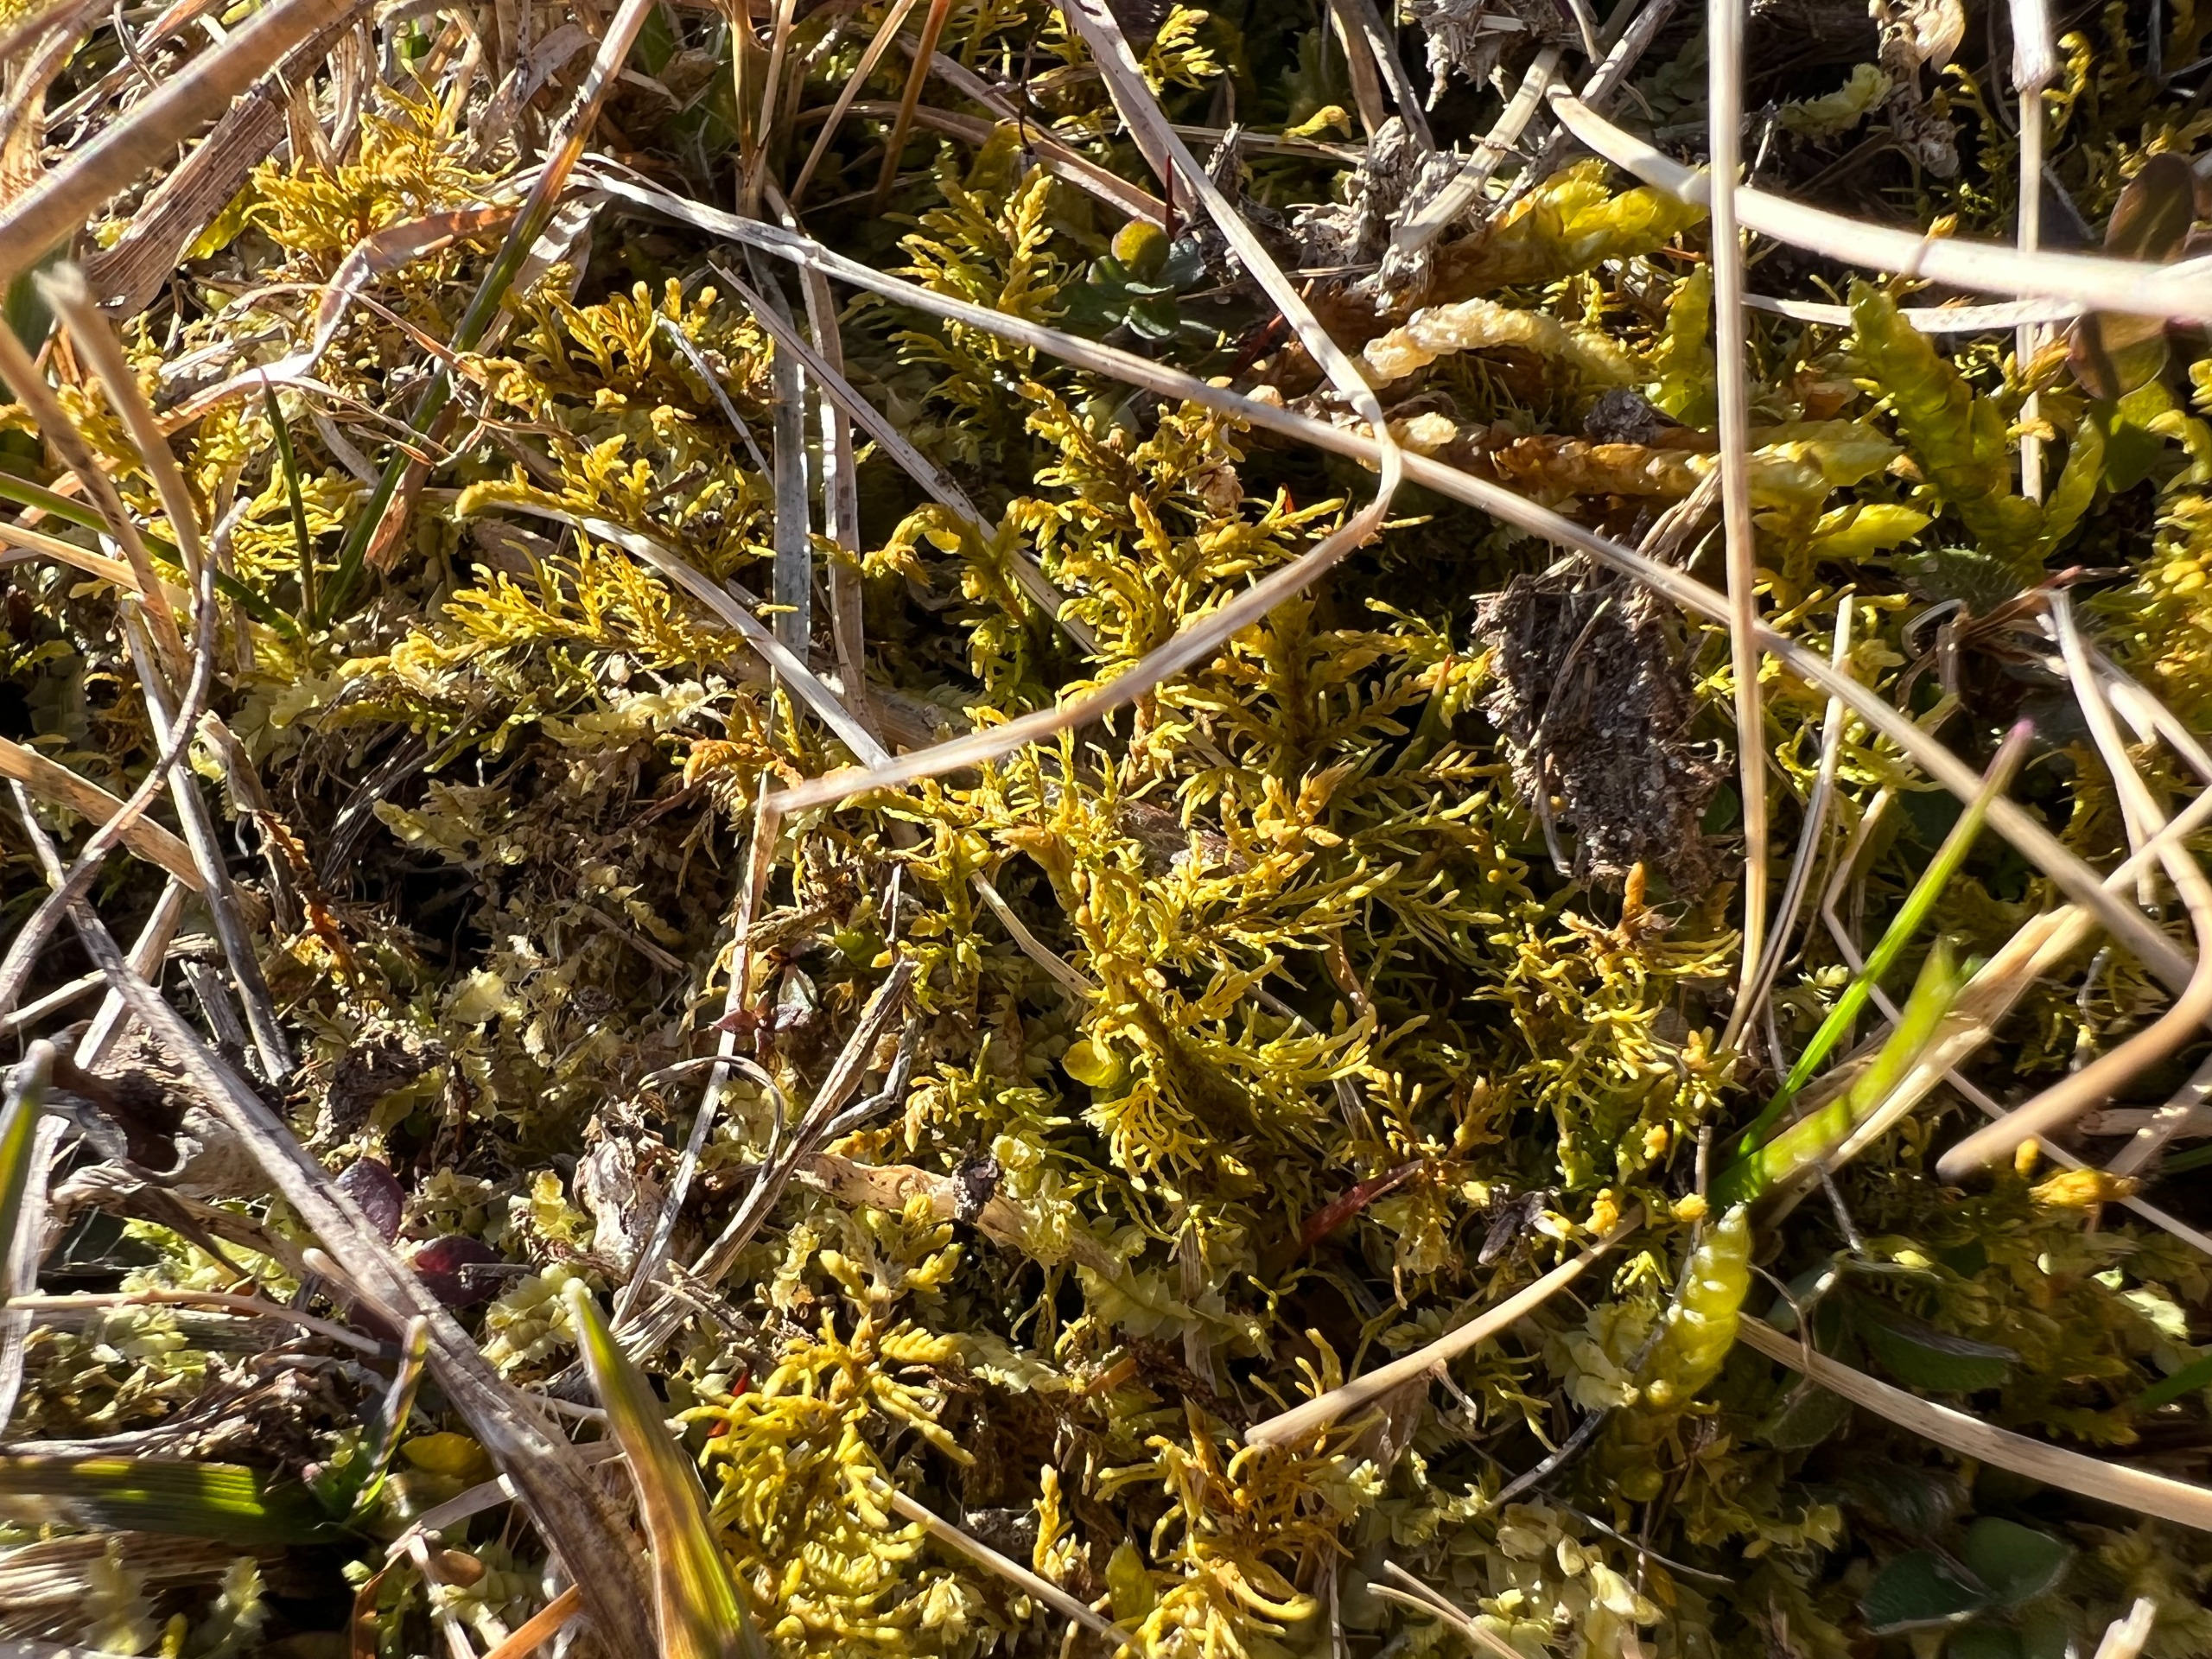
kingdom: Plantae
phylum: Bryophyta
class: Bryopsida
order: Hypnales
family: Thuidiaceae
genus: Thuidium
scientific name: Thuidium assimile
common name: Spidsbladet bregnemos
